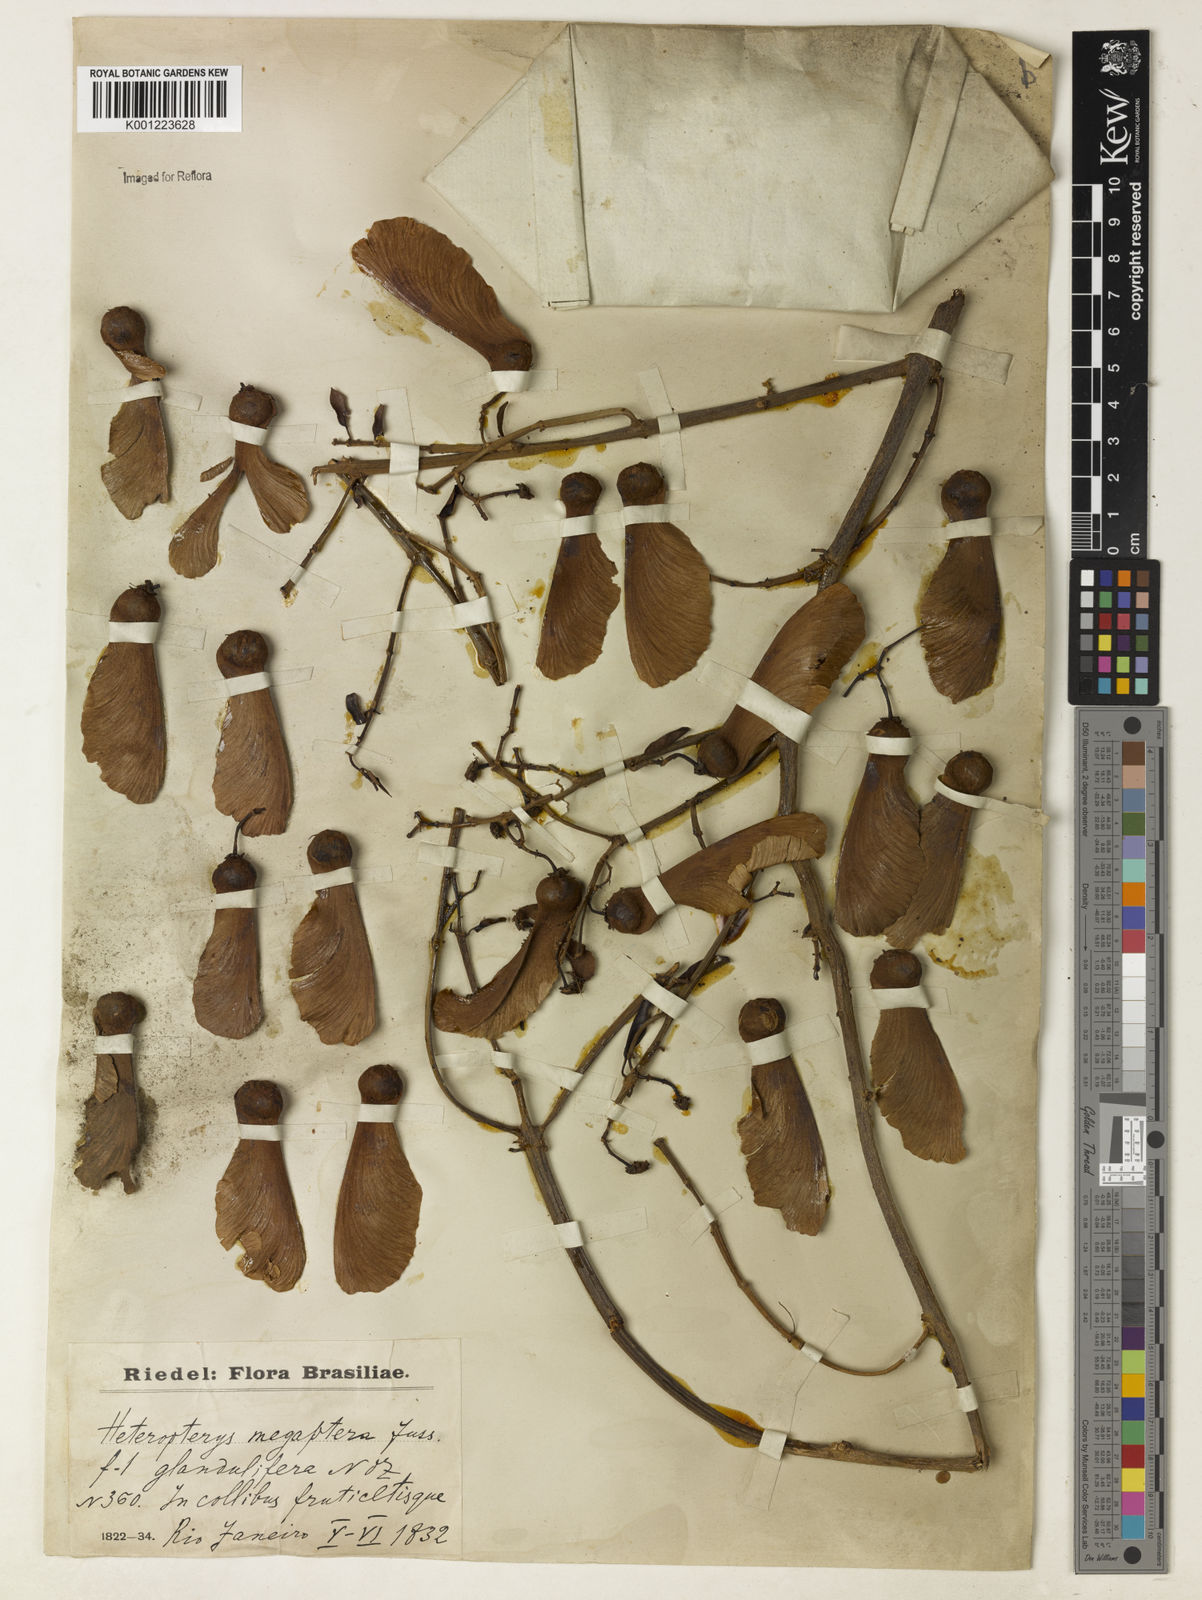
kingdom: Plantae
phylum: Tracheophyta
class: Magnoliopsida
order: Malpighiales
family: Malpighiaceae
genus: Heteropterys
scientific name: Heteropterys megaptera
